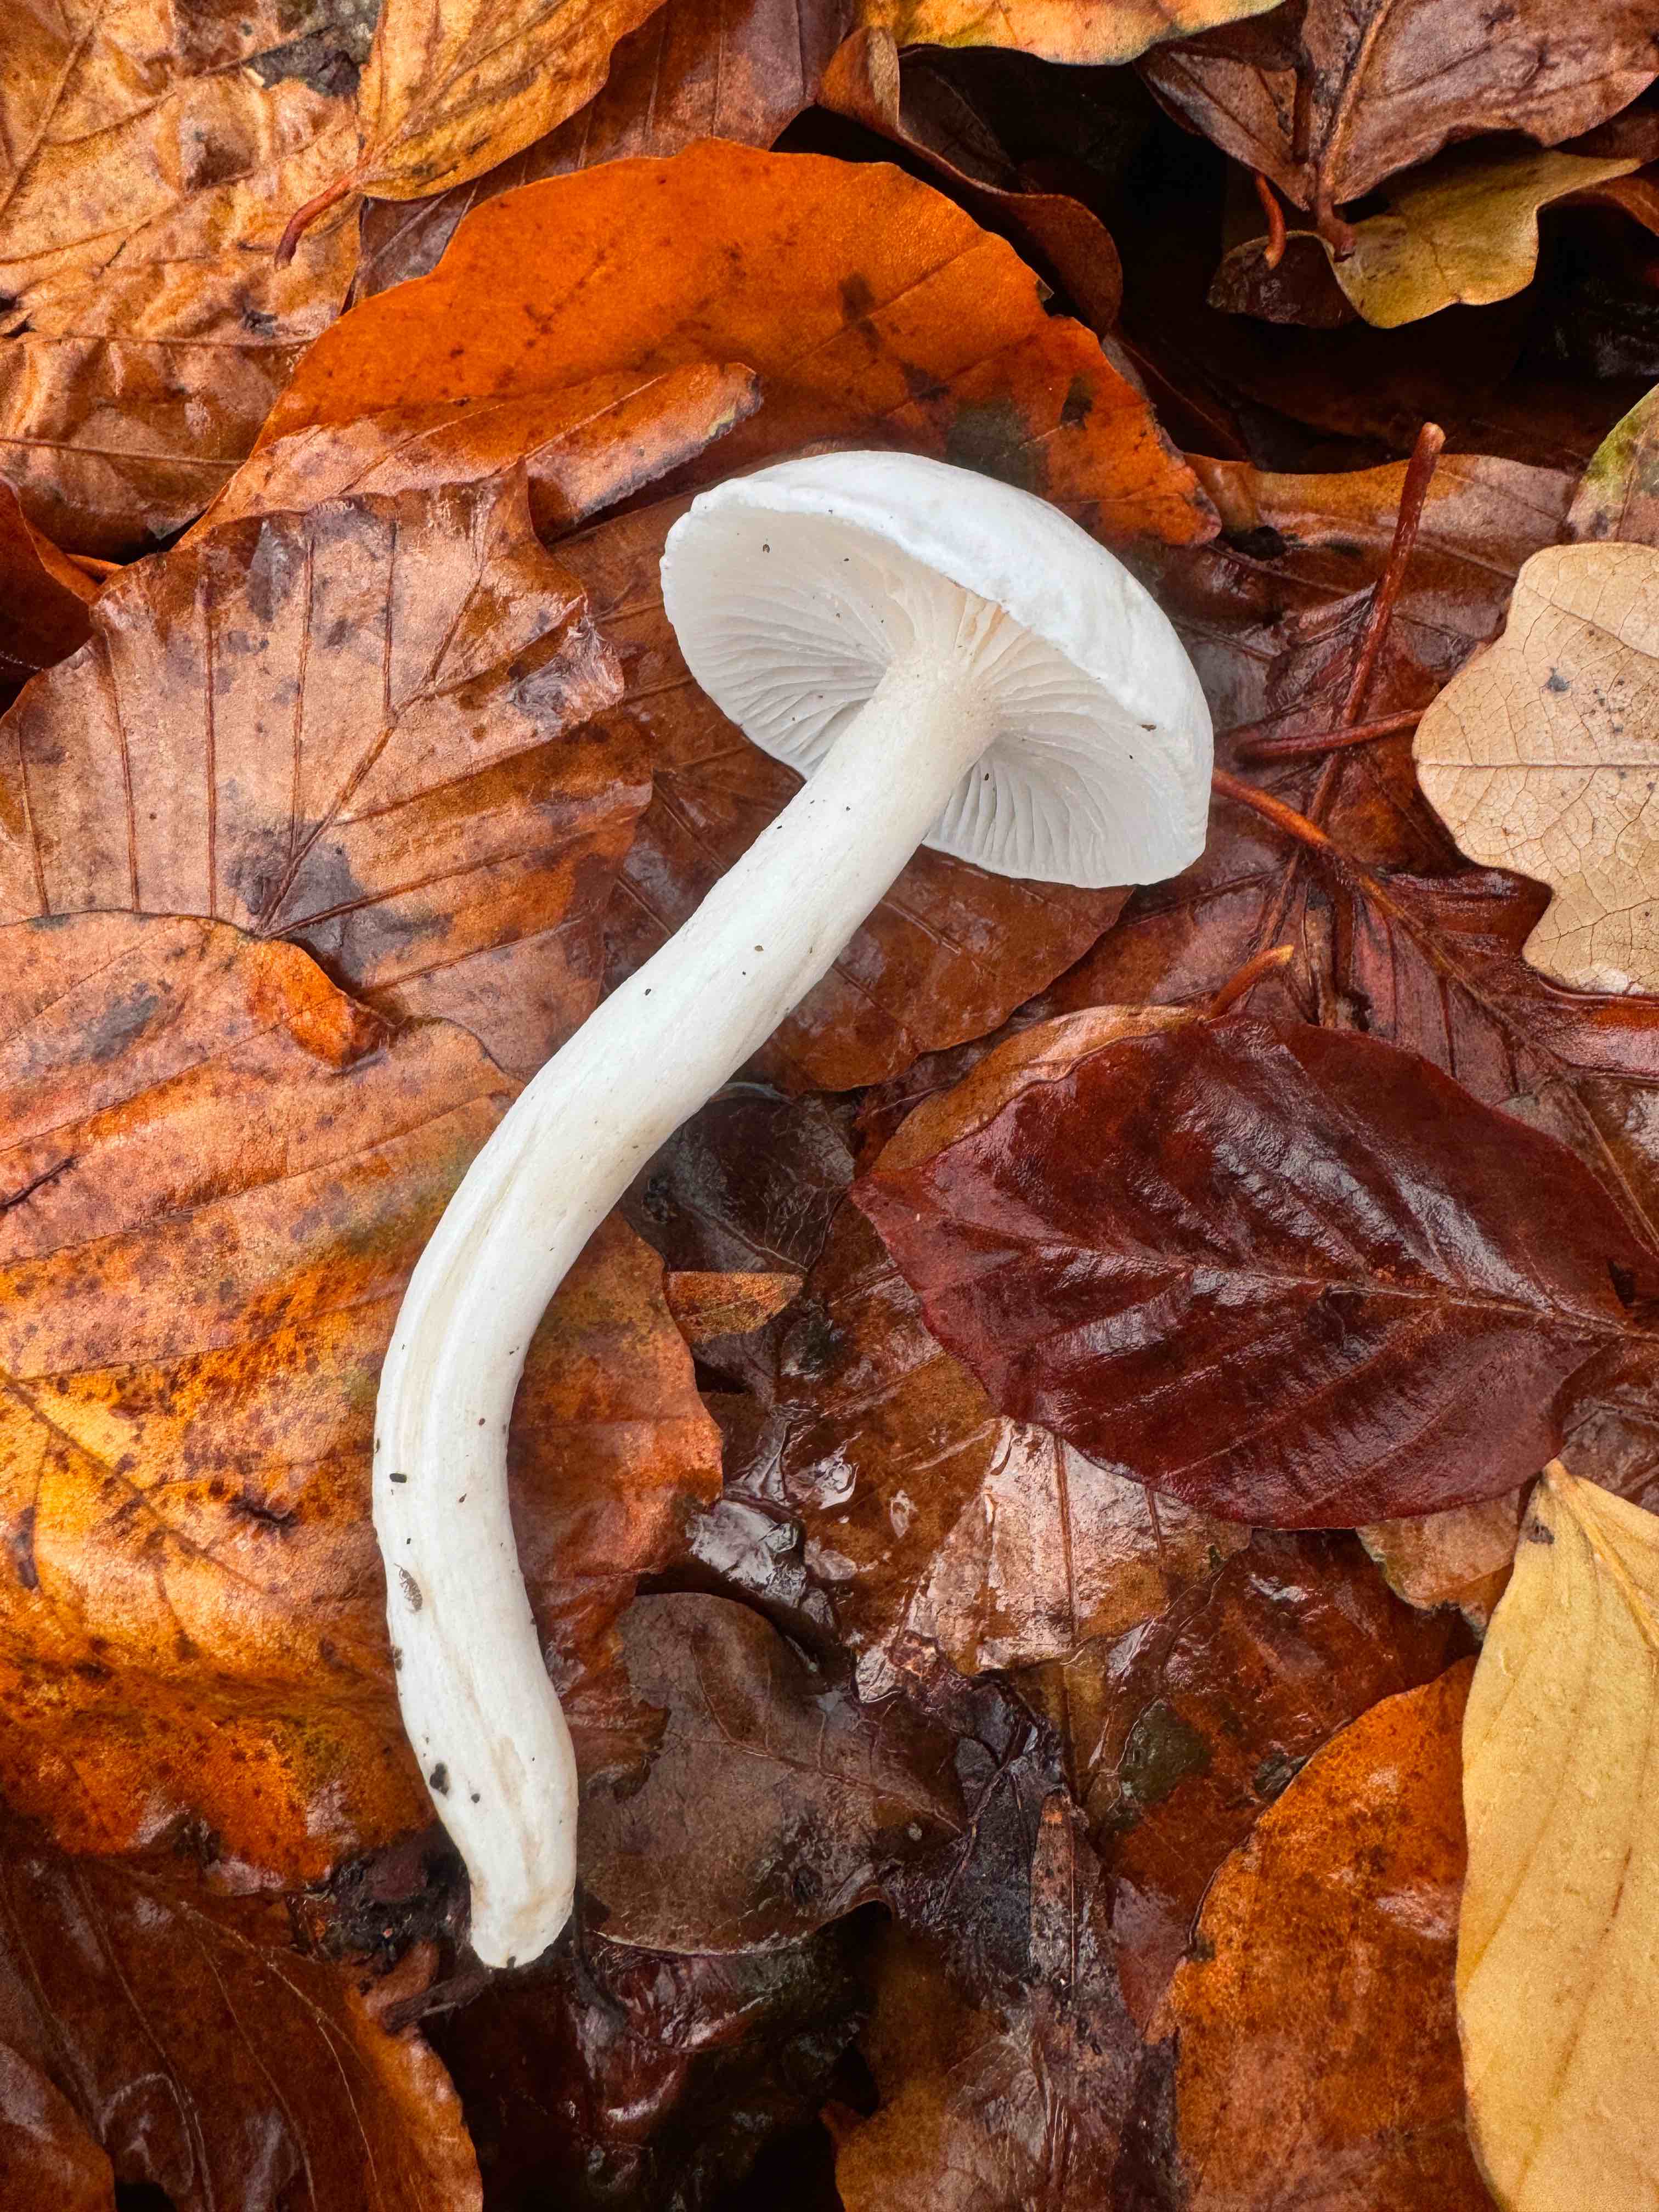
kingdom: Fungi
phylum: Basidiomycota
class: Agaricomycetes
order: Agaricales
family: Hygrophoraceae
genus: Hygrophorus
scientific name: Hygrophorus eburneus
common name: elfenbens-sneglehat
